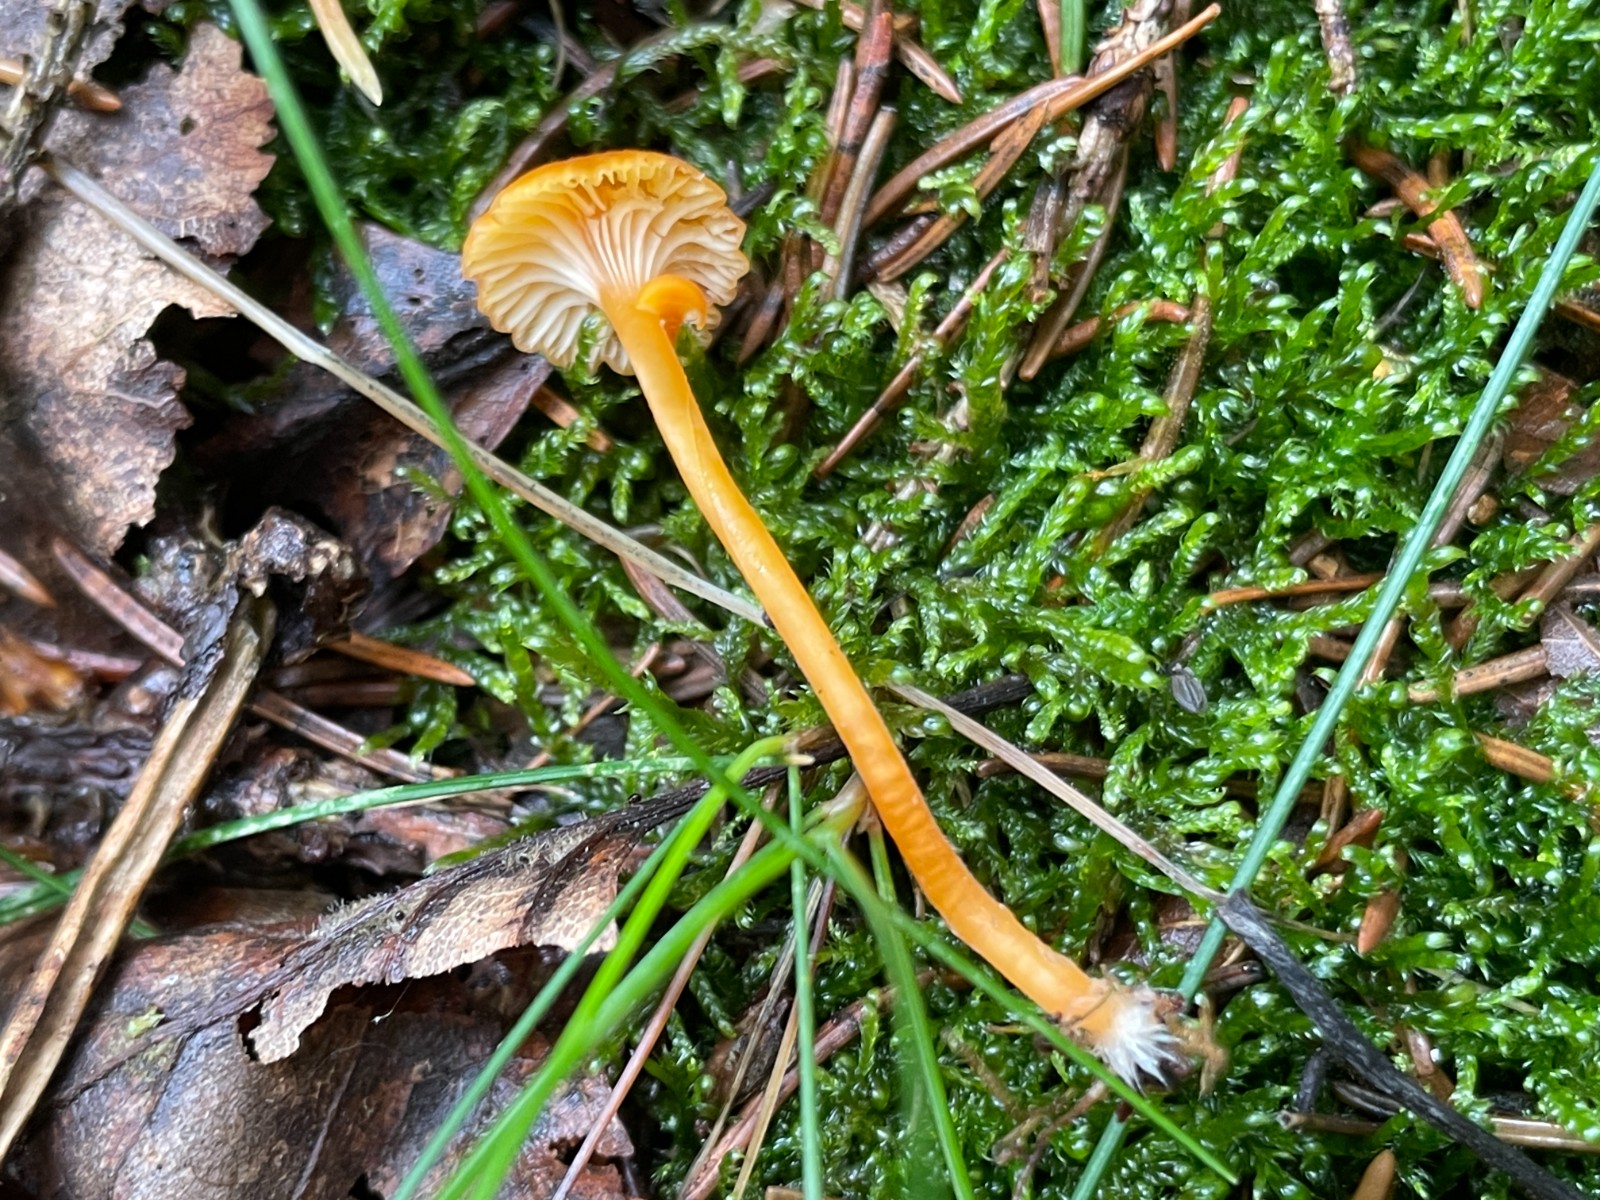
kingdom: Fungi
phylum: Basidiomycota
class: Agaricomycetes
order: Hymenochaetales
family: Rickenellaceae
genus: Rickenella
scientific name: Rickenella fibula
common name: orange mosnavlehat
